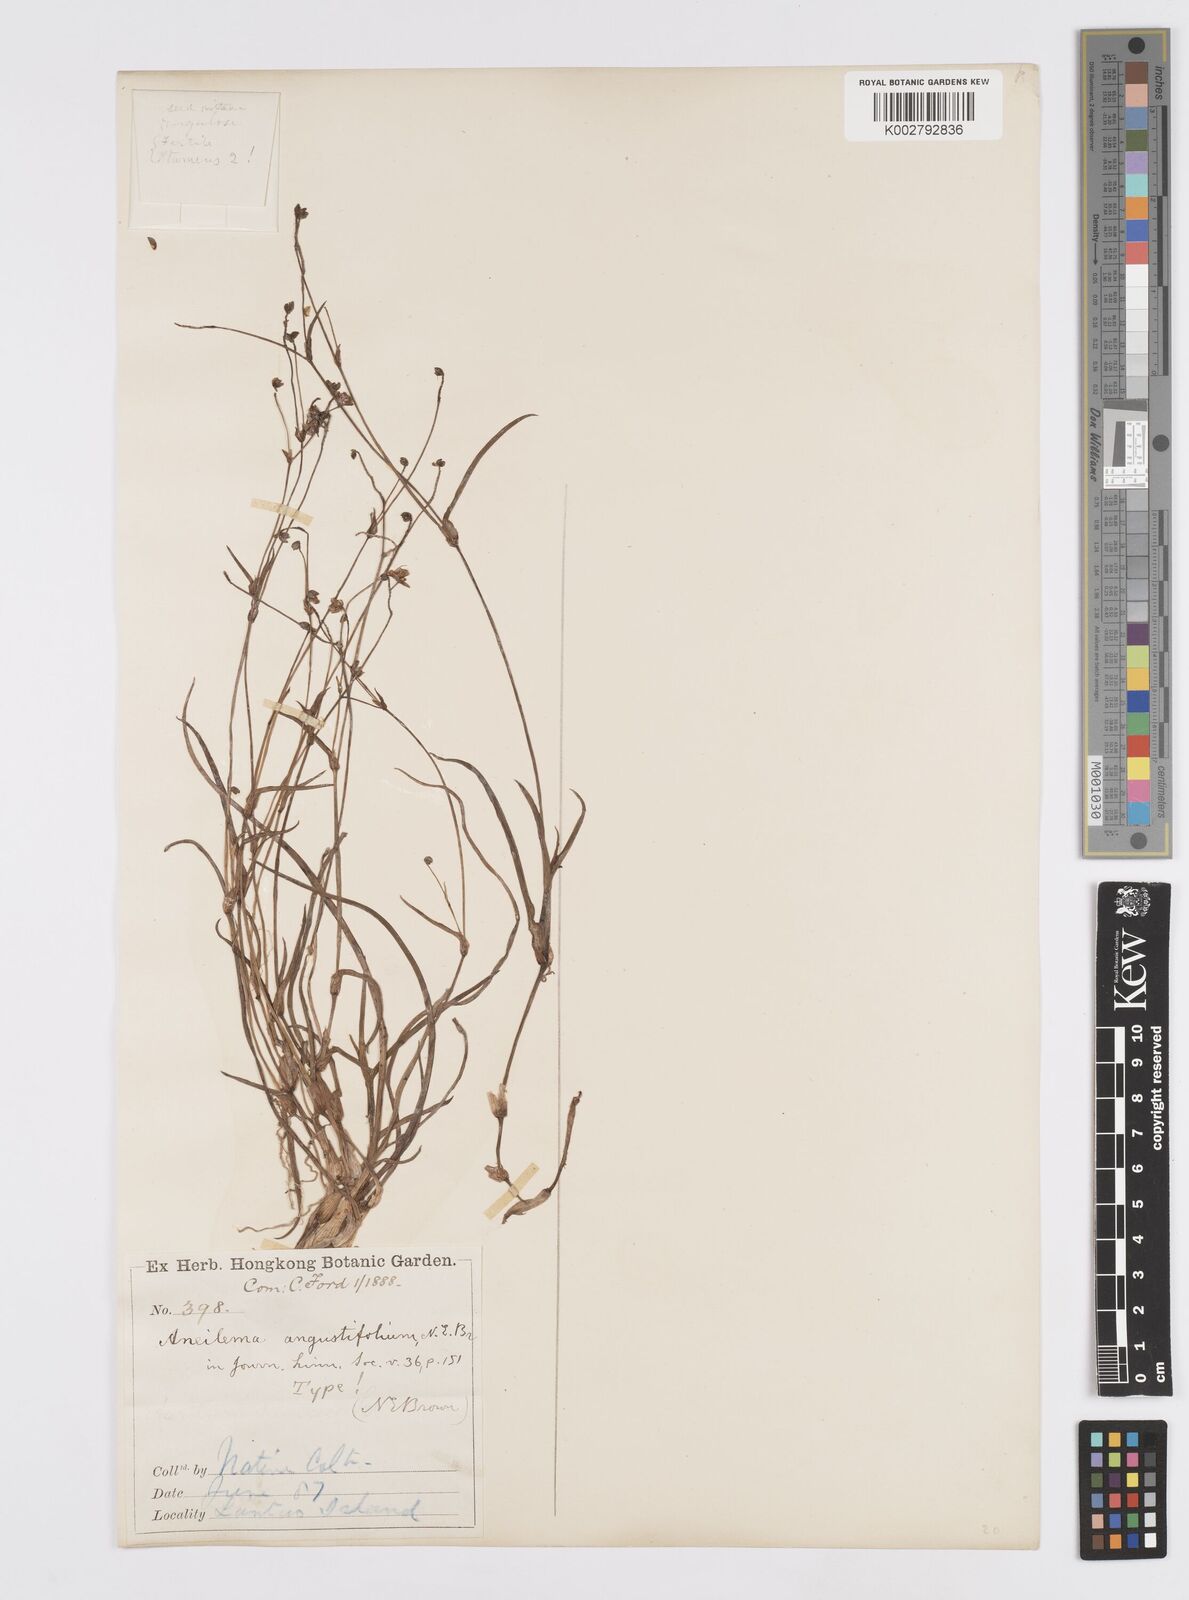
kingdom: Plantae
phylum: Tracheophyta
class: Liliopsida
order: Commelinales
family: Commelinaceae
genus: Murdannia
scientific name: Murdannia loriformis
